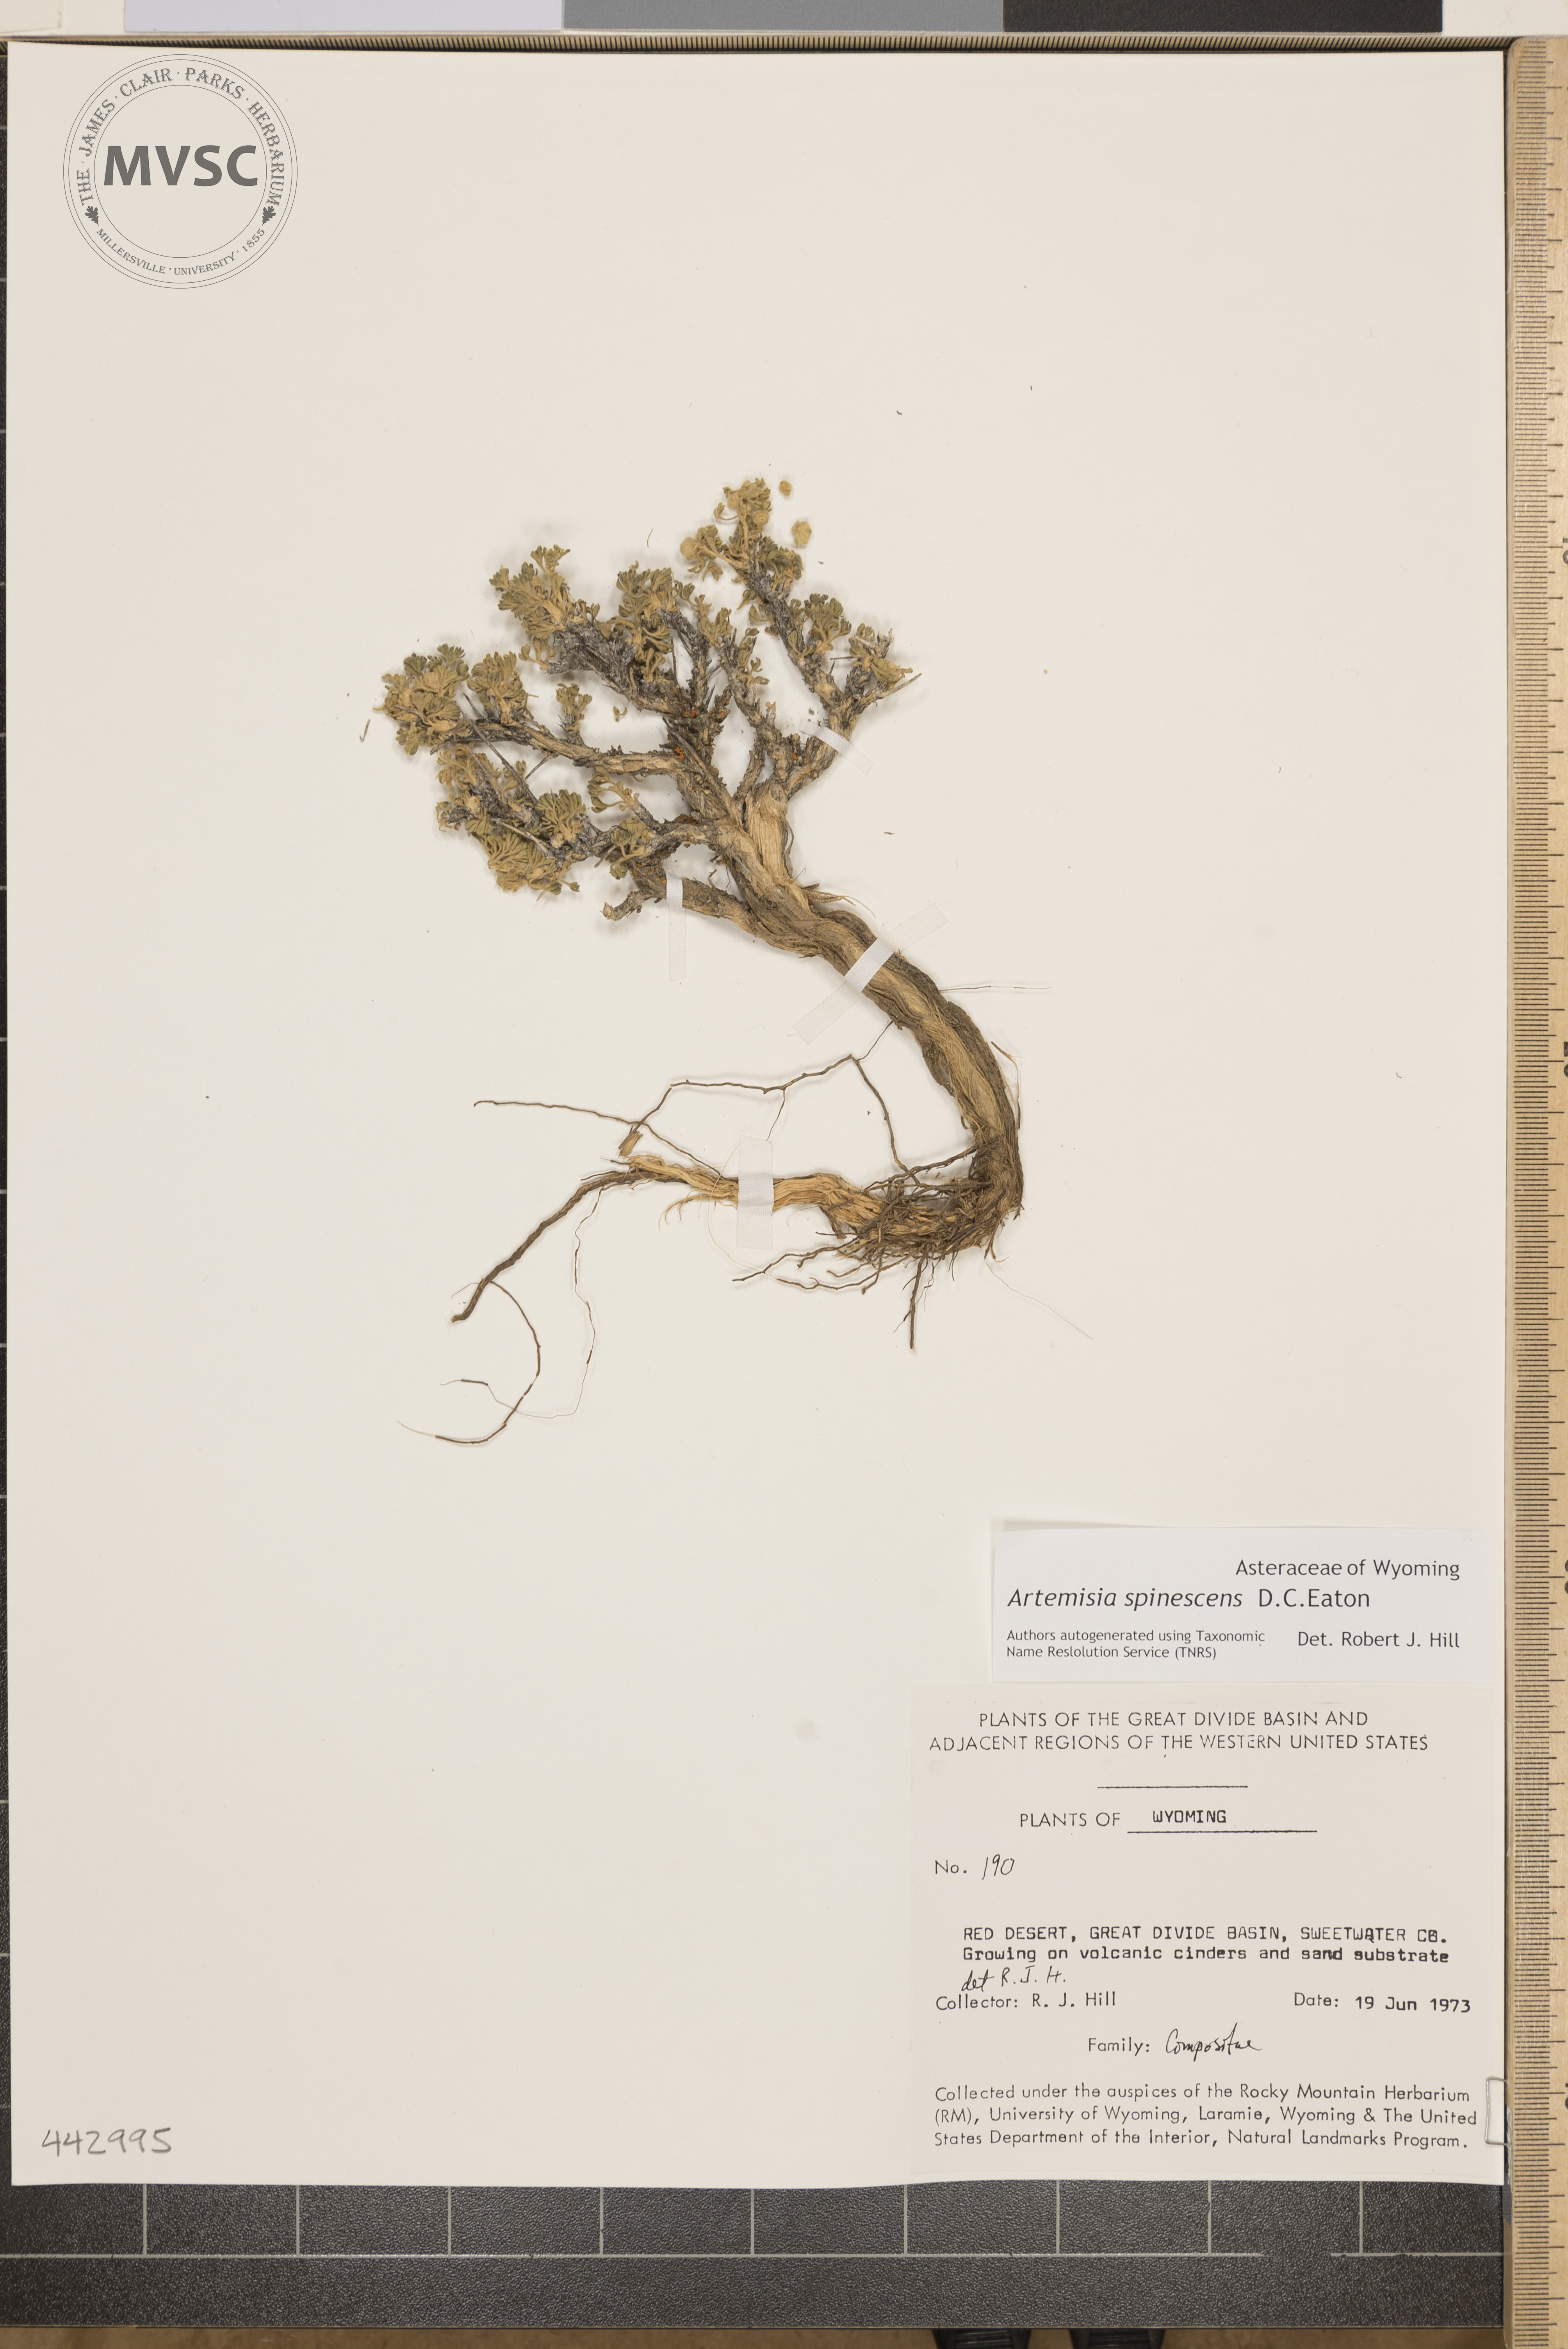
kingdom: Plantae
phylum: Tracheophyta
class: Magnoliopsida
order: Asterales
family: Asteraceae
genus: Artemisia
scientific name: Artemisia spinescens
